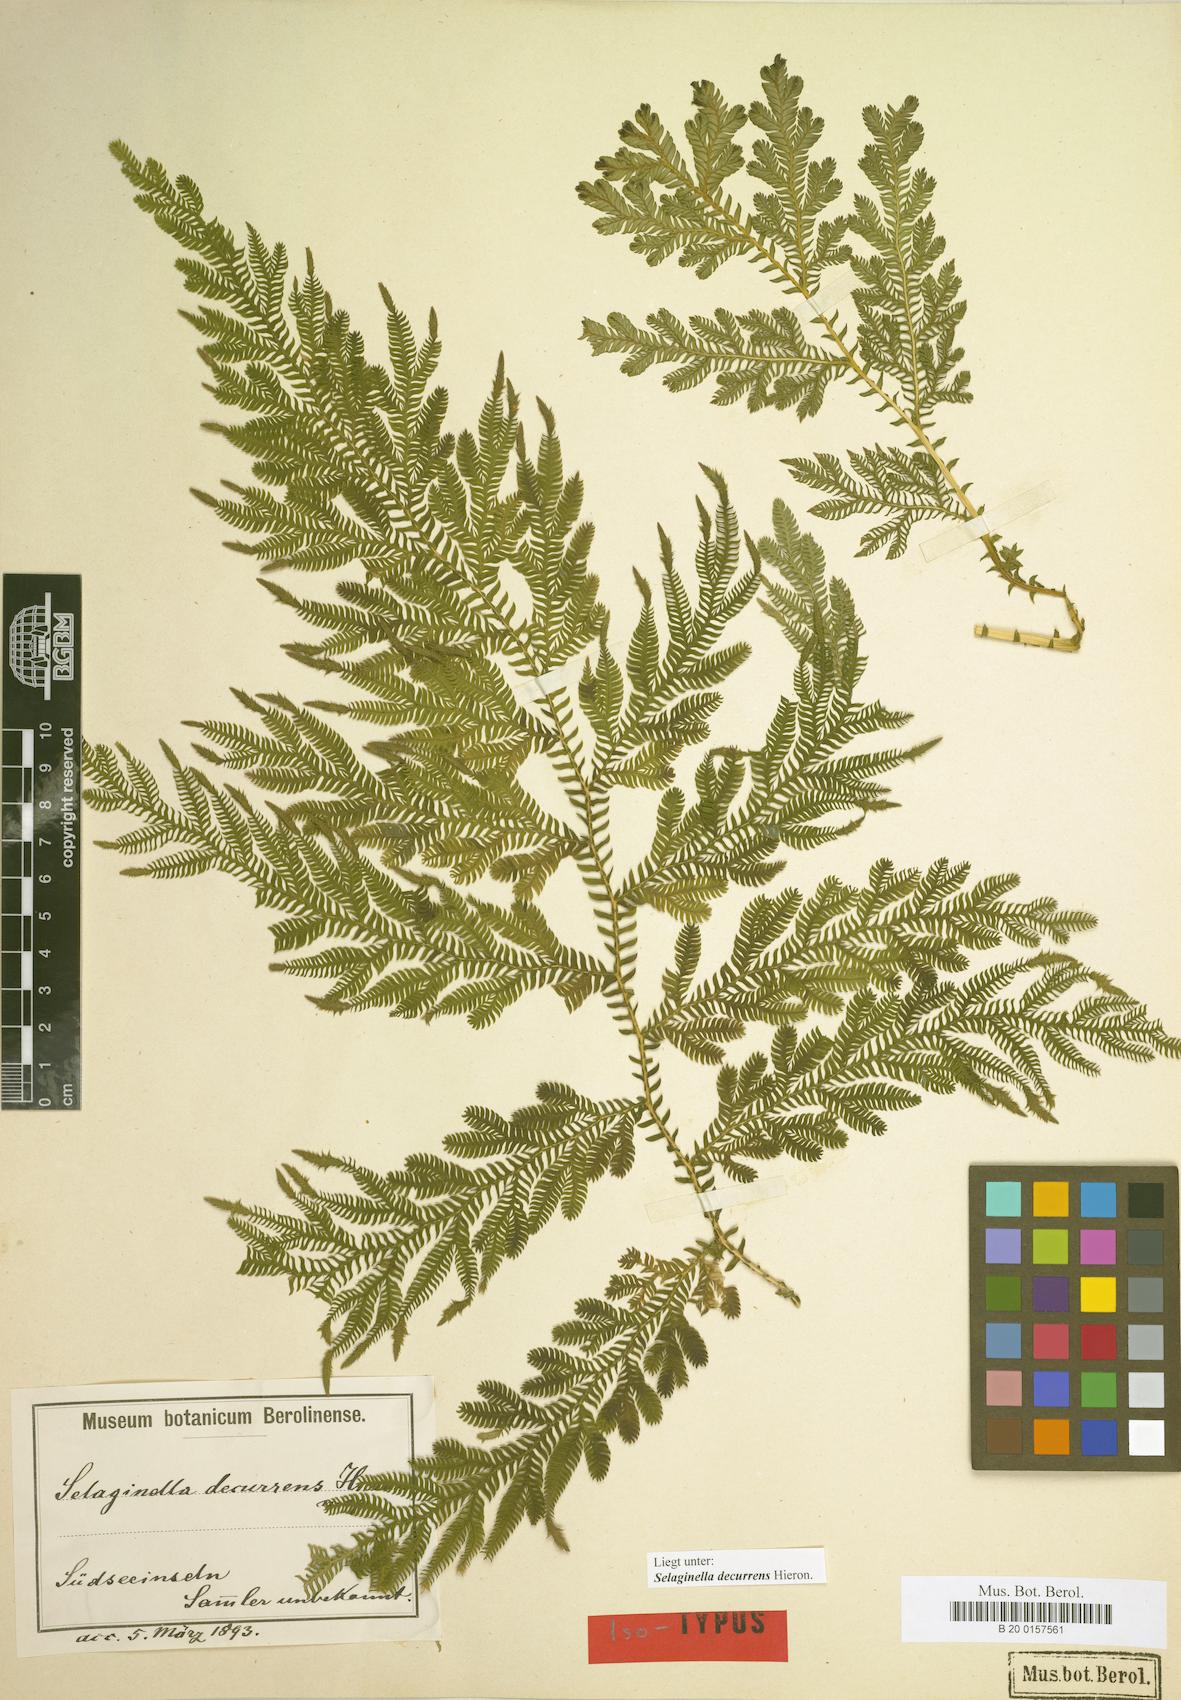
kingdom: Plantae
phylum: Tracheophyta
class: Lycopodiopsida
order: Selaginellales
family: Selaginellaceae
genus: Selaginella
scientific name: Selaginella decurrens
